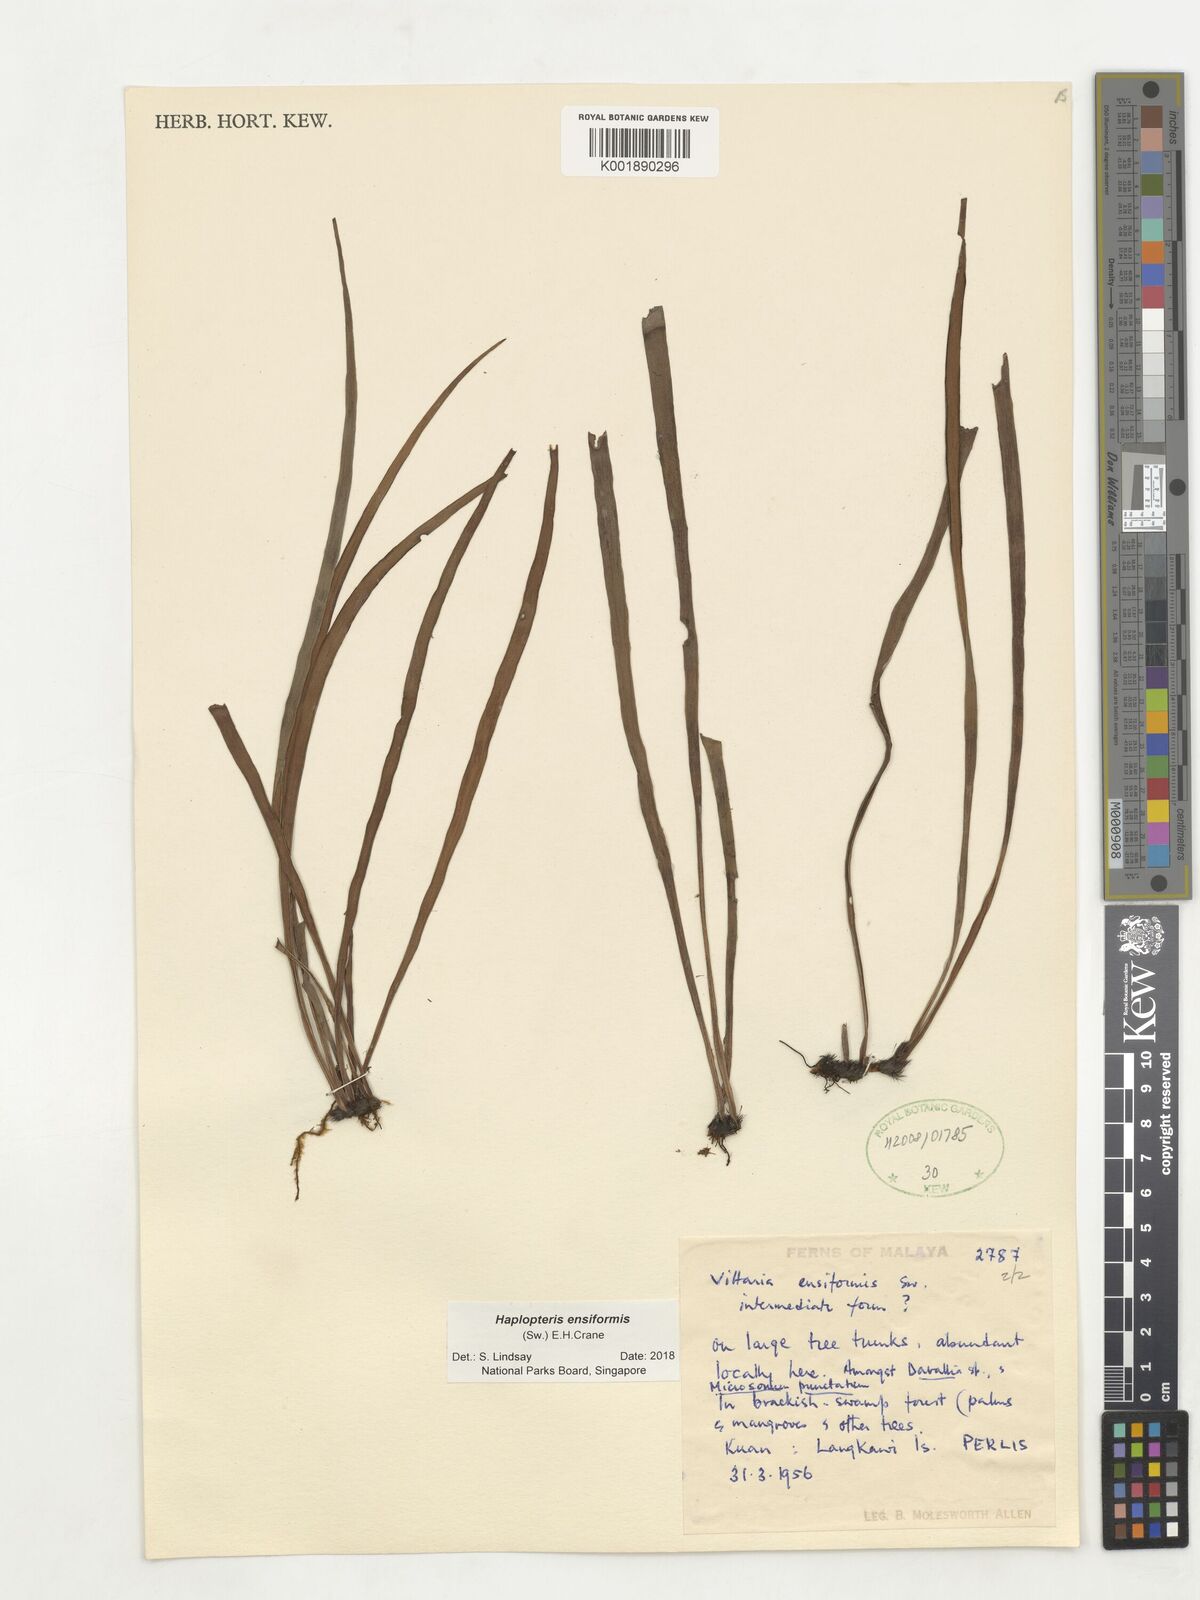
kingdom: Plantae
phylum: Tracheophyta
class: Polypodiopsida
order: Polypodiales
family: Pteridaceae
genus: Haplopteris
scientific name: Haplopteris ensiformis
